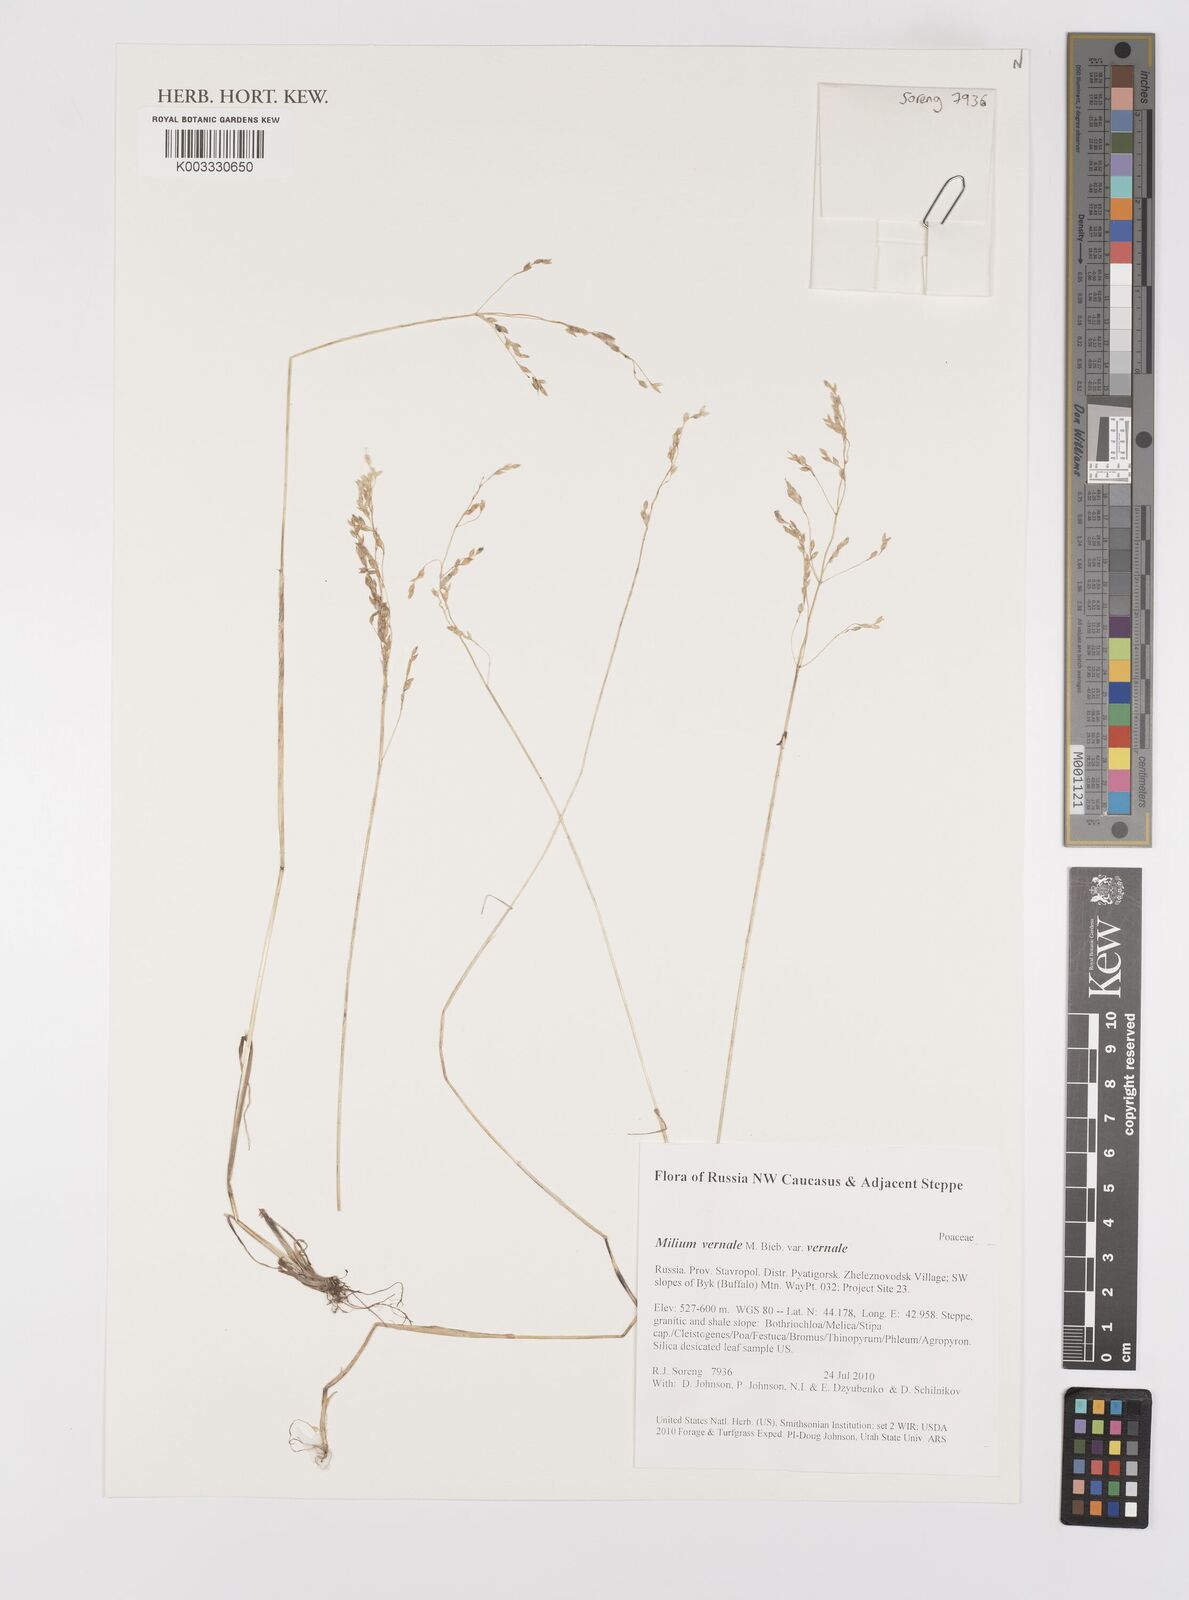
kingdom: Plantae
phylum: Tracheophyta
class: Liliopsida
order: Poales
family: Poaceae
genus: Milium
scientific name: Milium vernale
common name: Early millet
